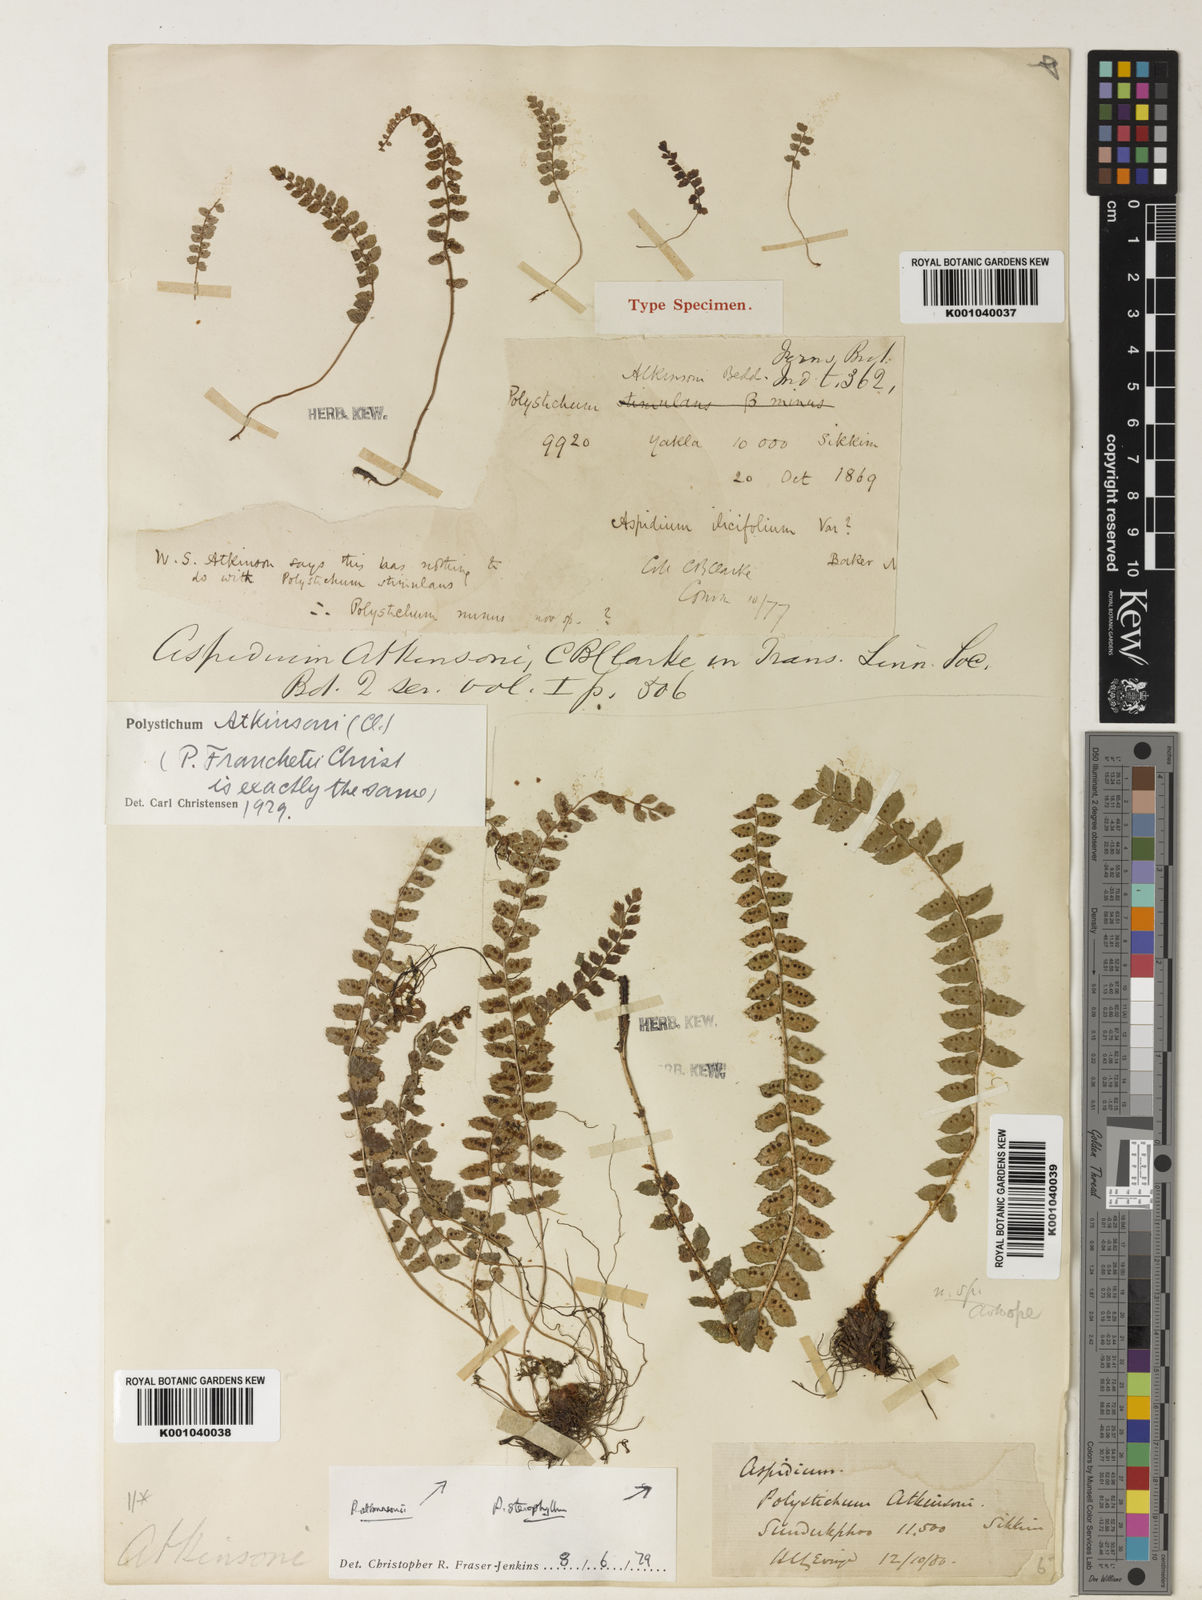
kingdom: Plantae
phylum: Tracheophyta
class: Polypodiopsida
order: Polypodiales
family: Dryopteridaceae
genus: Polystichum
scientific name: Polystichum atkinsonii
